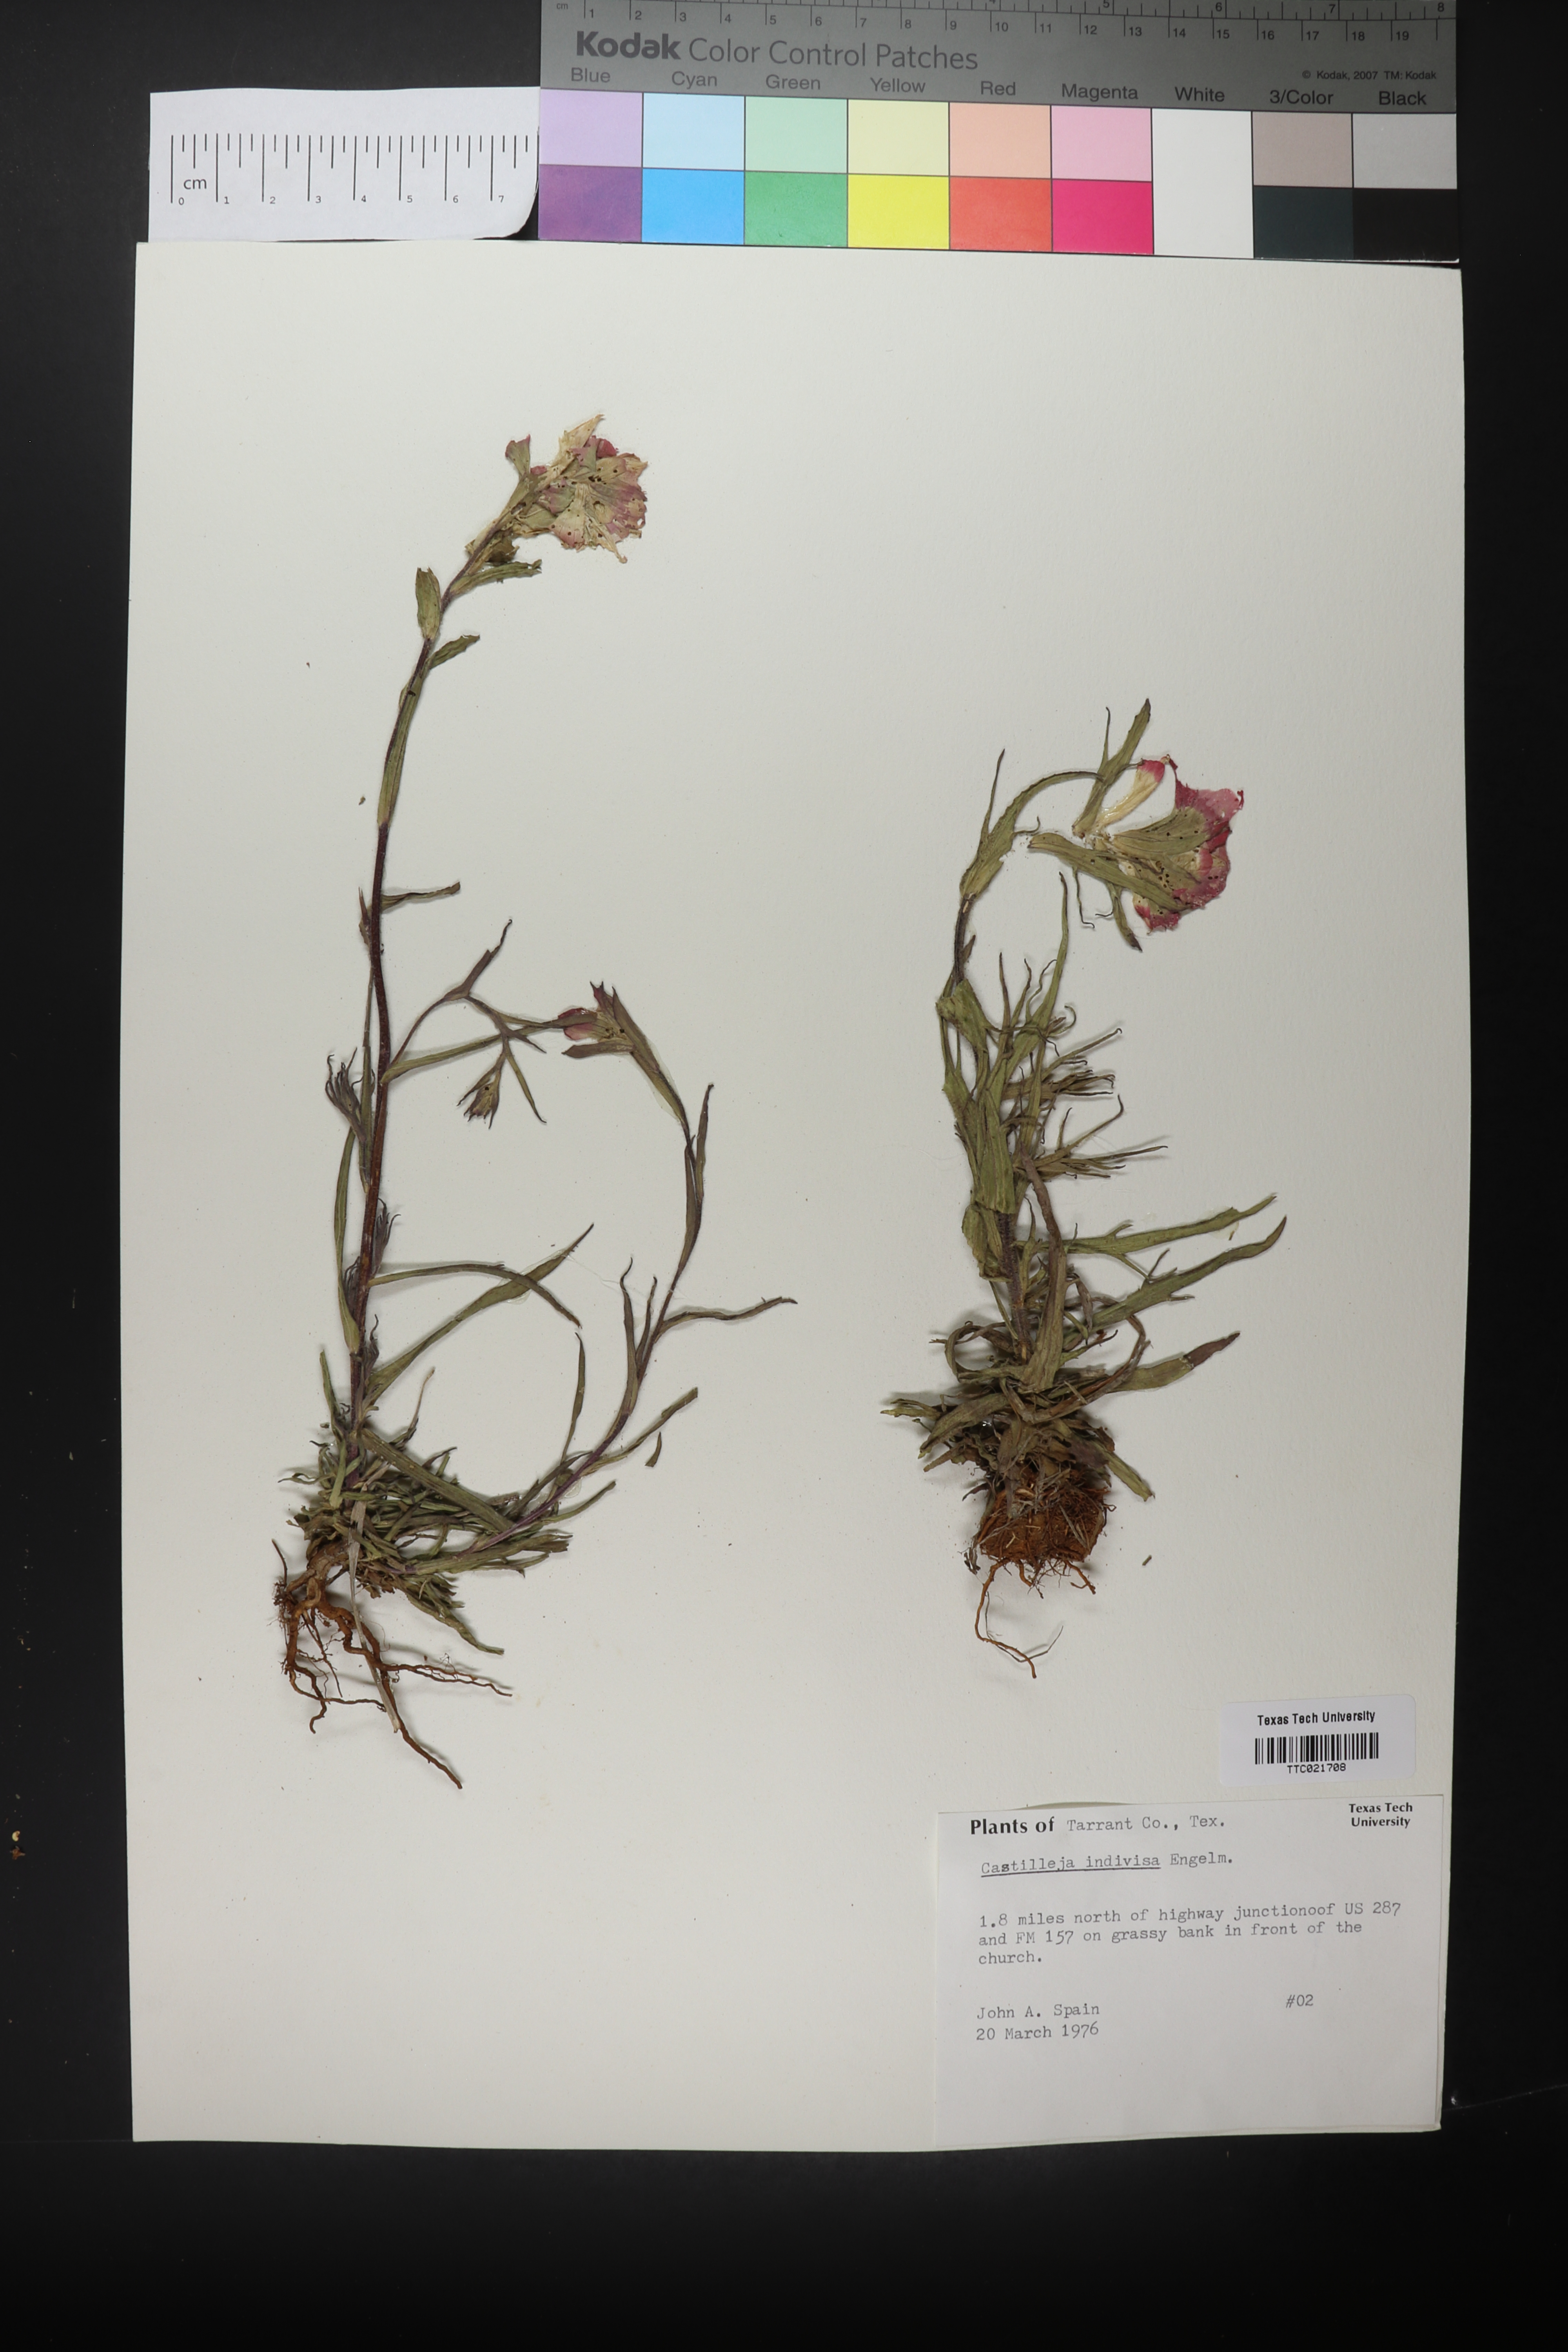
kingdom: Plantae
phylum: Tracheophyta
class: Magnoliopsida
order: Lamiales
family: Orobanchaceae
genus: Castilleja
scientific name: Castilleja indivisa
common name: Texas paintbrush
